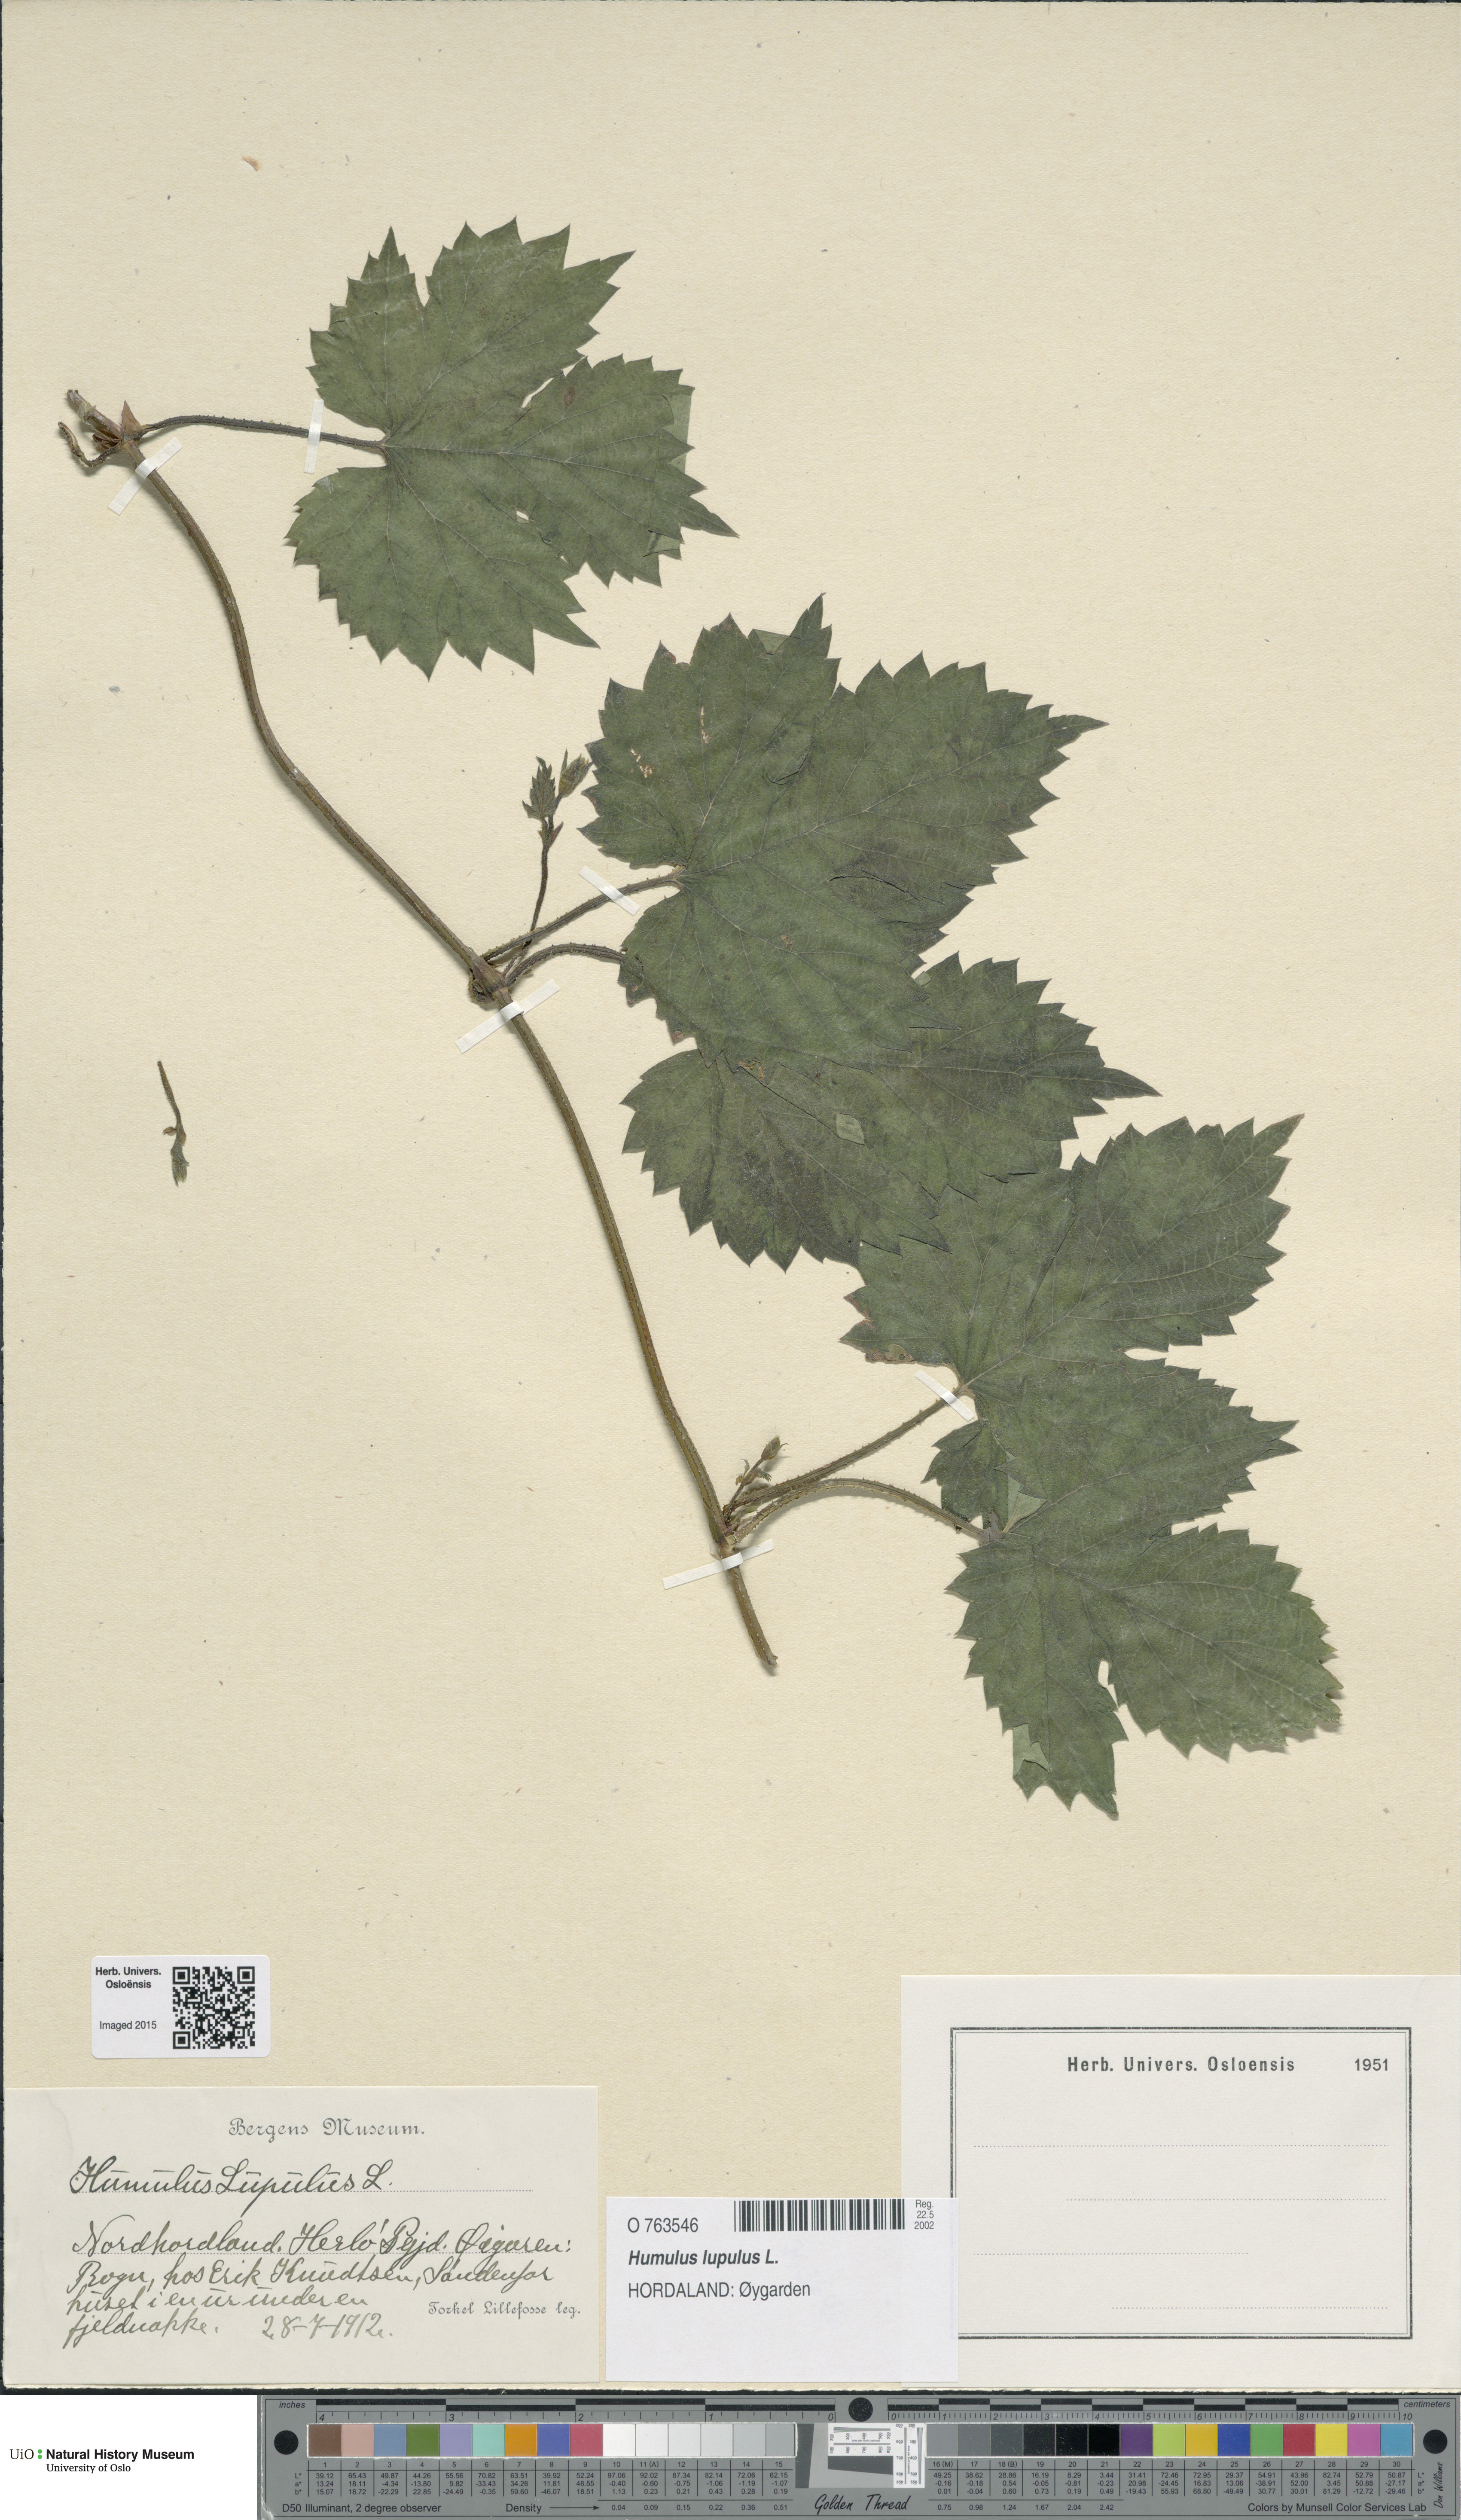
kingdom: Plantae
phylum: Tracheophyta
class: Magnoliopsida
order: Rosales
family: Cannabaceae
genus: Humulus
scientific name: Humulus lupulus
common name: Hop
